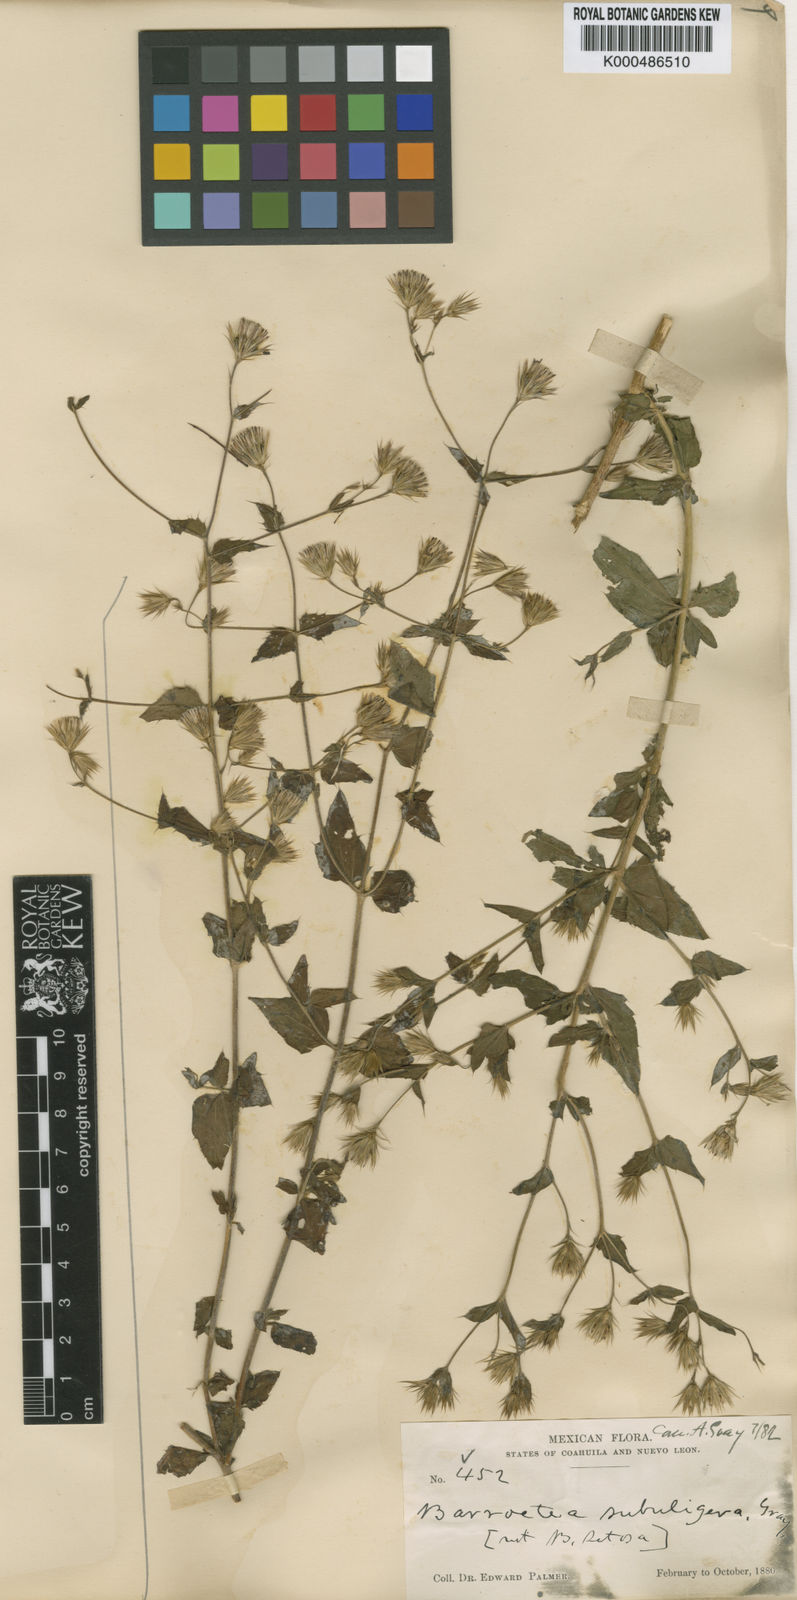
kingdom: Plantae
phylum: Tracheophyta
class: Magnoliopsida
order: Asterales
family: Asteraceae
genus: Brickellia
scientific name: Brickellia subuligera
